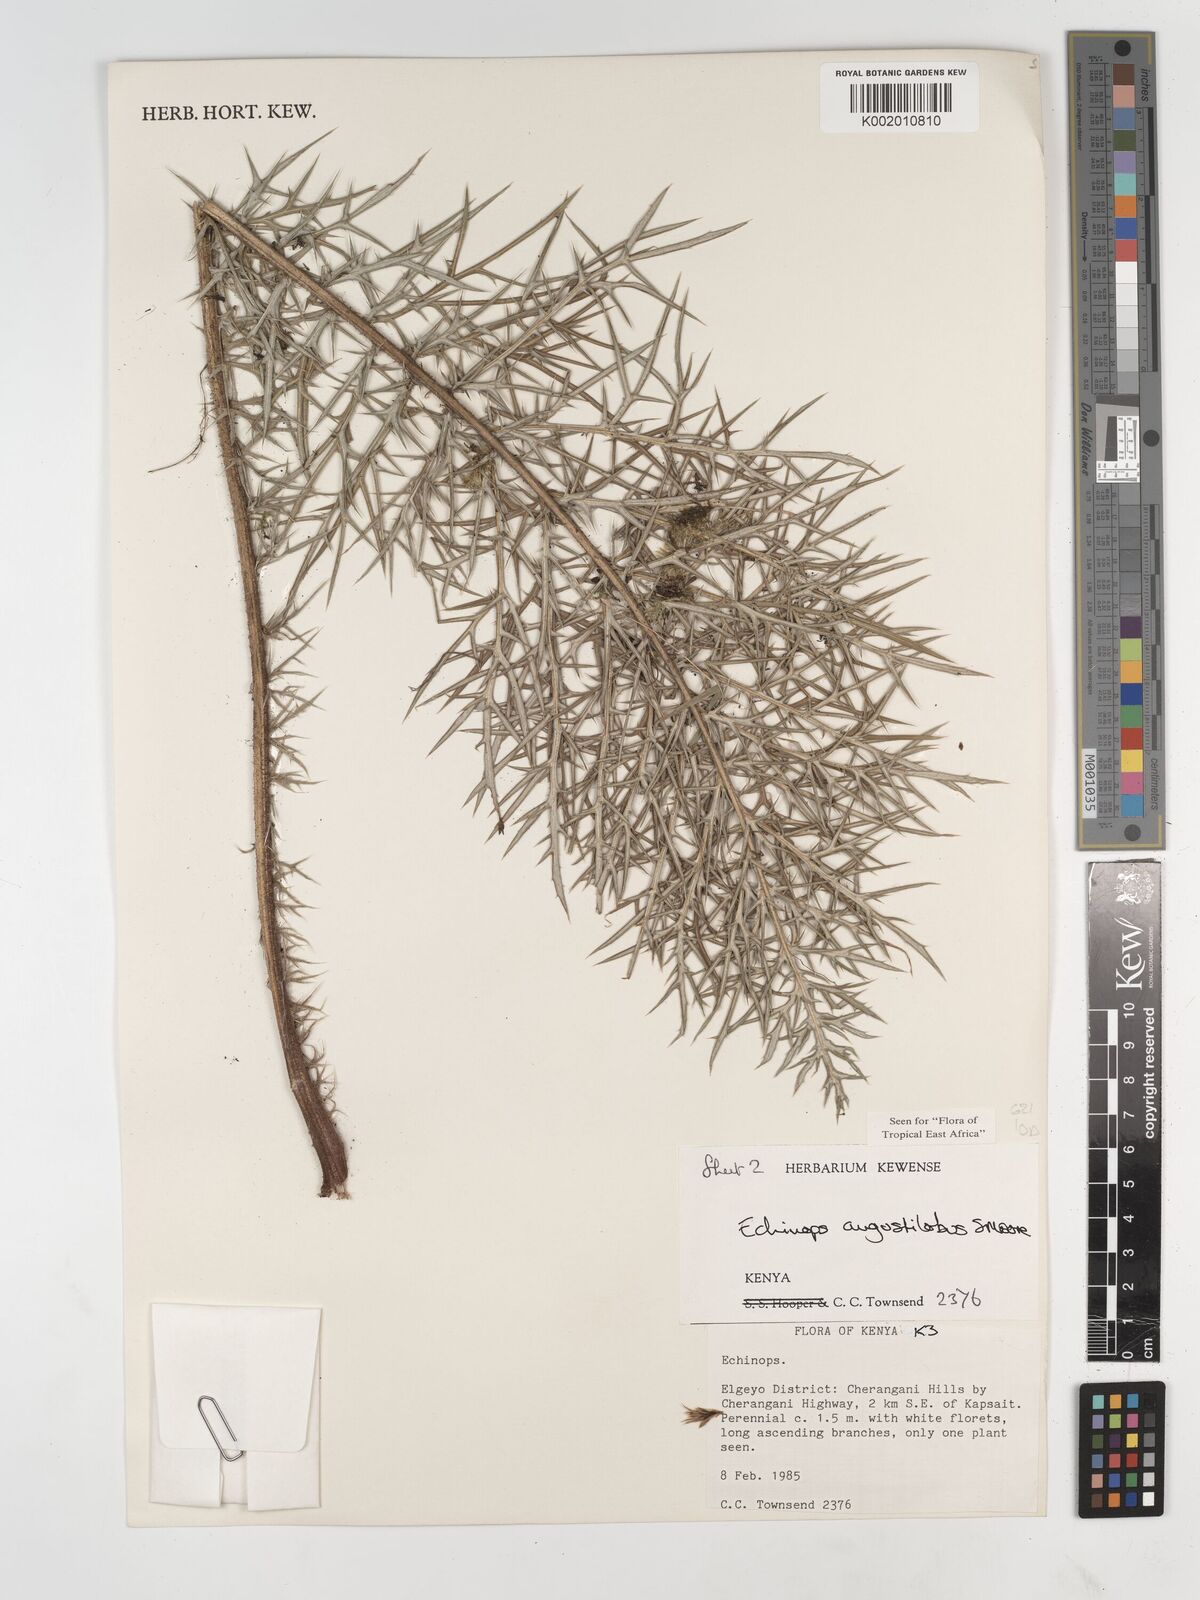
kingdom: Plantae
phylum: Tracheophyta
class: Magnoliopsida
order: Asterales
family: Asteraceae
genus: Echinops
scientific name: Echinops angustilobus
